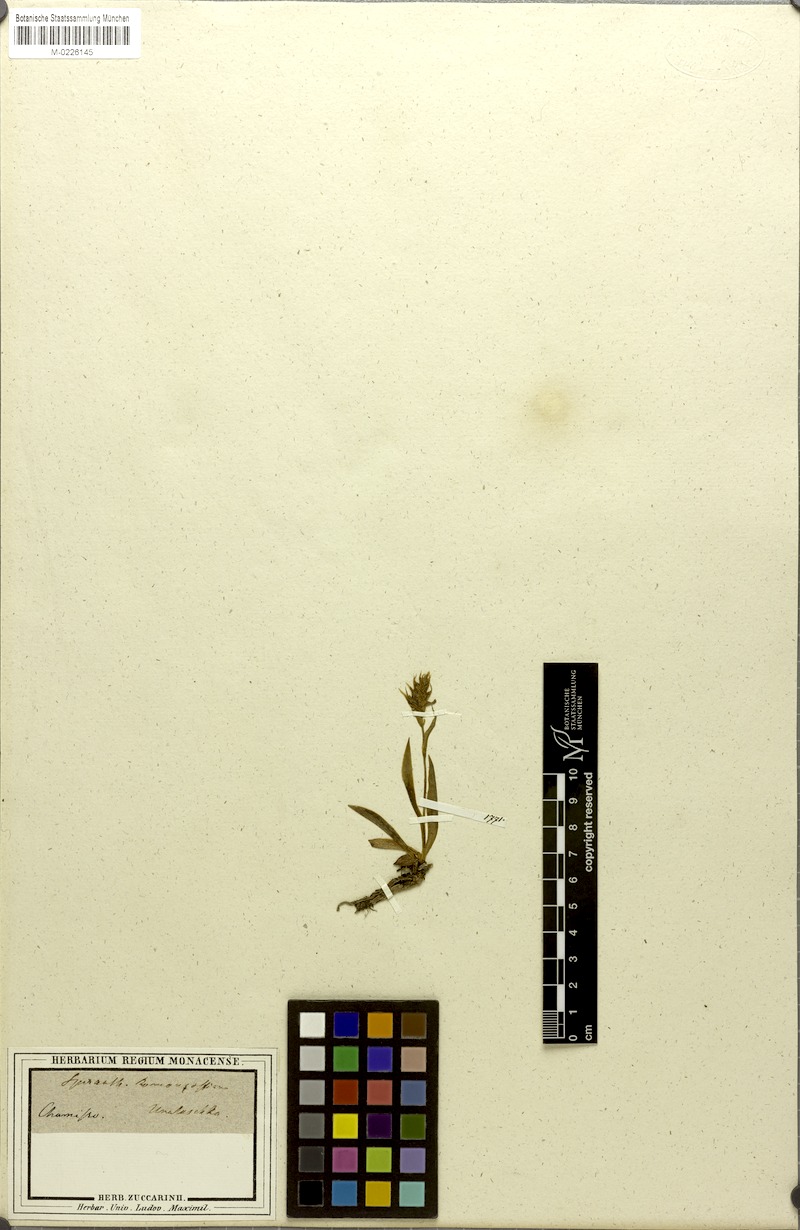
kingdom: Plantae
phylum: Tracheophyta
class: Liliopsida
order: Asparagales
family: Orchidaceae
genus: Spiranthes
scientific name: Spiranthes romanzoffiana
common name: Irish lady's-tresses
